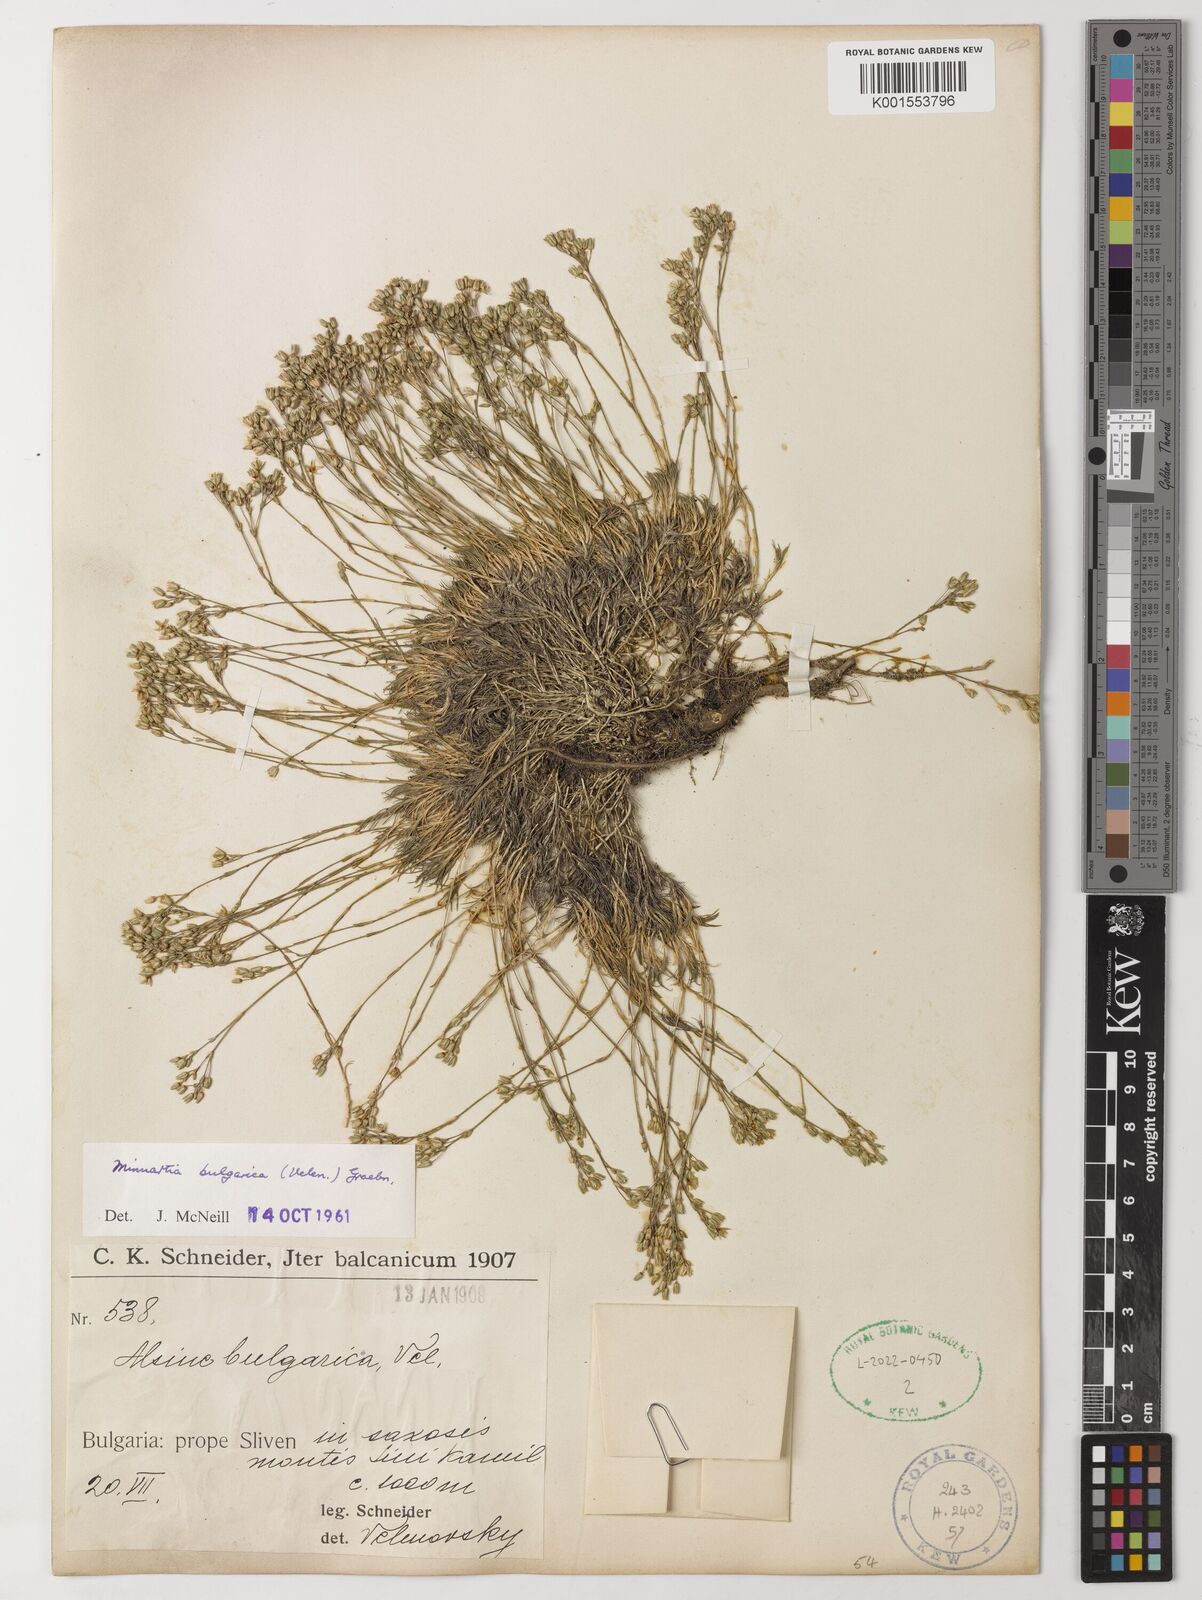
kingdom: Plantae
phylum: Tracheophyta
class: Magnoliopsida
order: Caryophyllales
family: Caryophyllaceae
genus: Minuartia
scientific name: Minuartia
